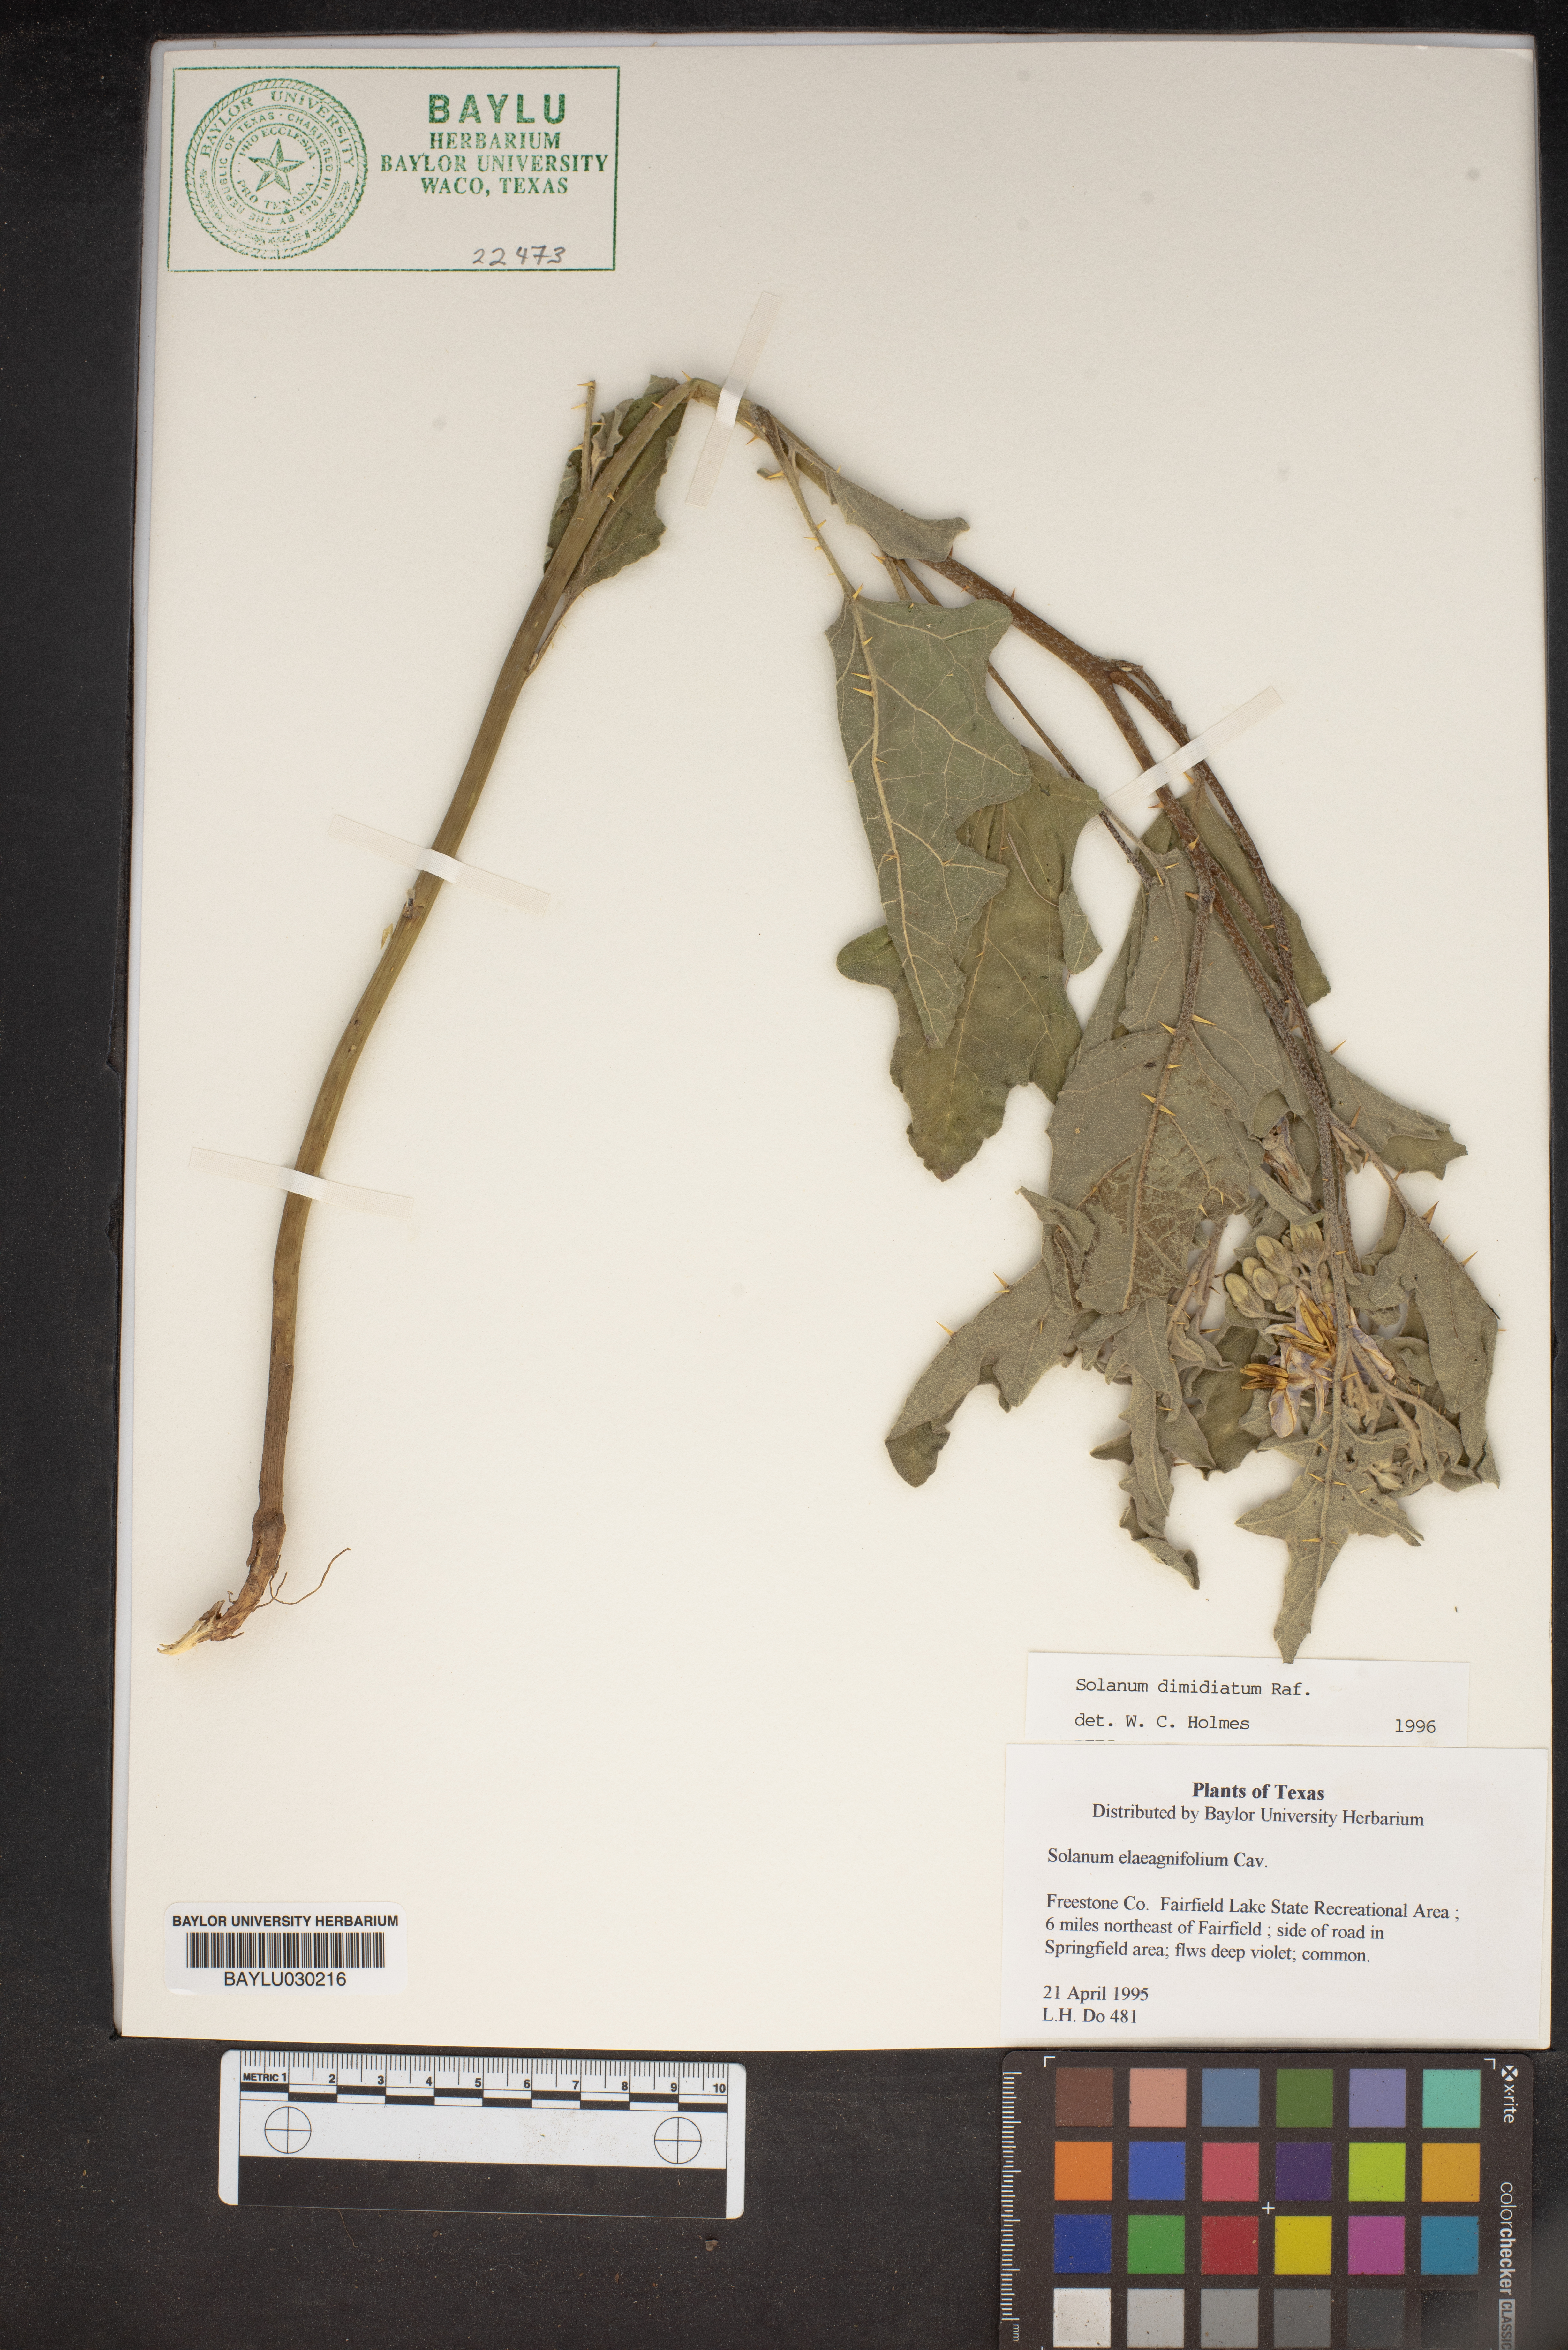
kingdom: Plantae
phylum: Tracheophyta
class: Magnoliopsida
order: Solanales
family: Solanaceae
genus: Solanum
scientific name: Solanum elaeagnifolium
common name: Silverleaf nightshade
